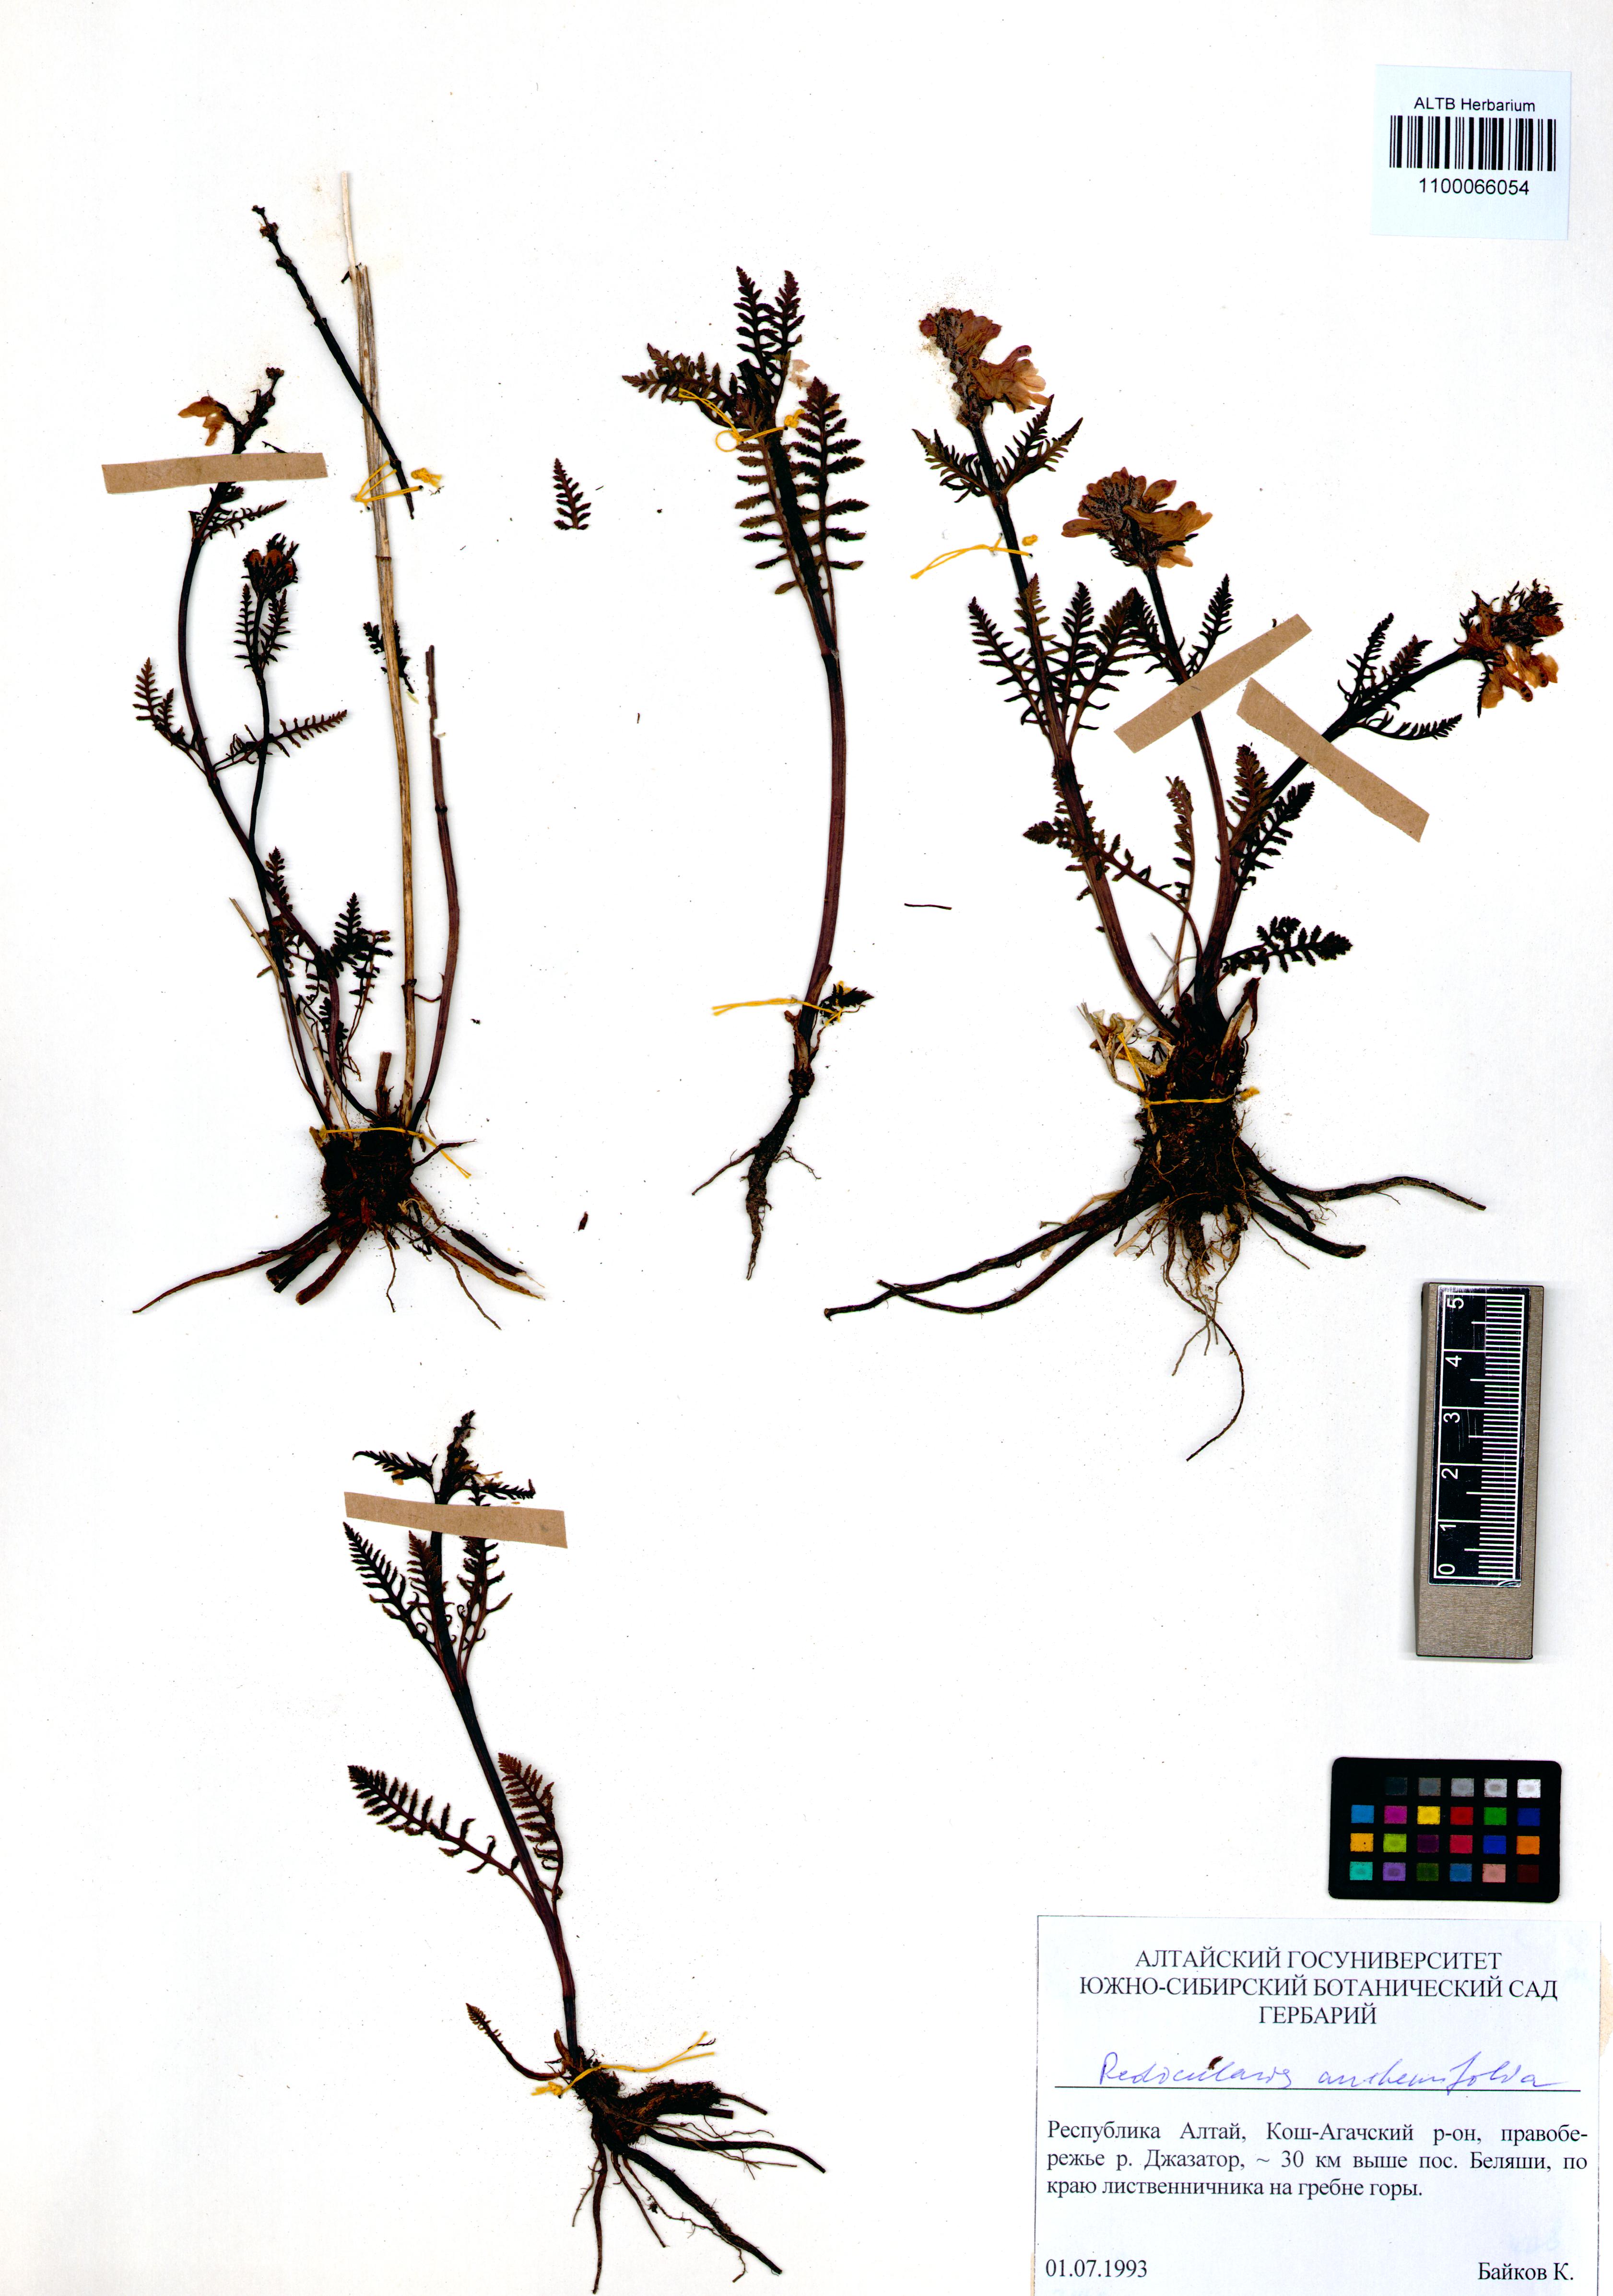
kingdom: Plantae
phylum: Tracheophyta
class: Magnoliopsida
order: Lamiales
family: Orobanchaceae
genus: Pedicularis
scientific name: Pedicularis anthemifolia
